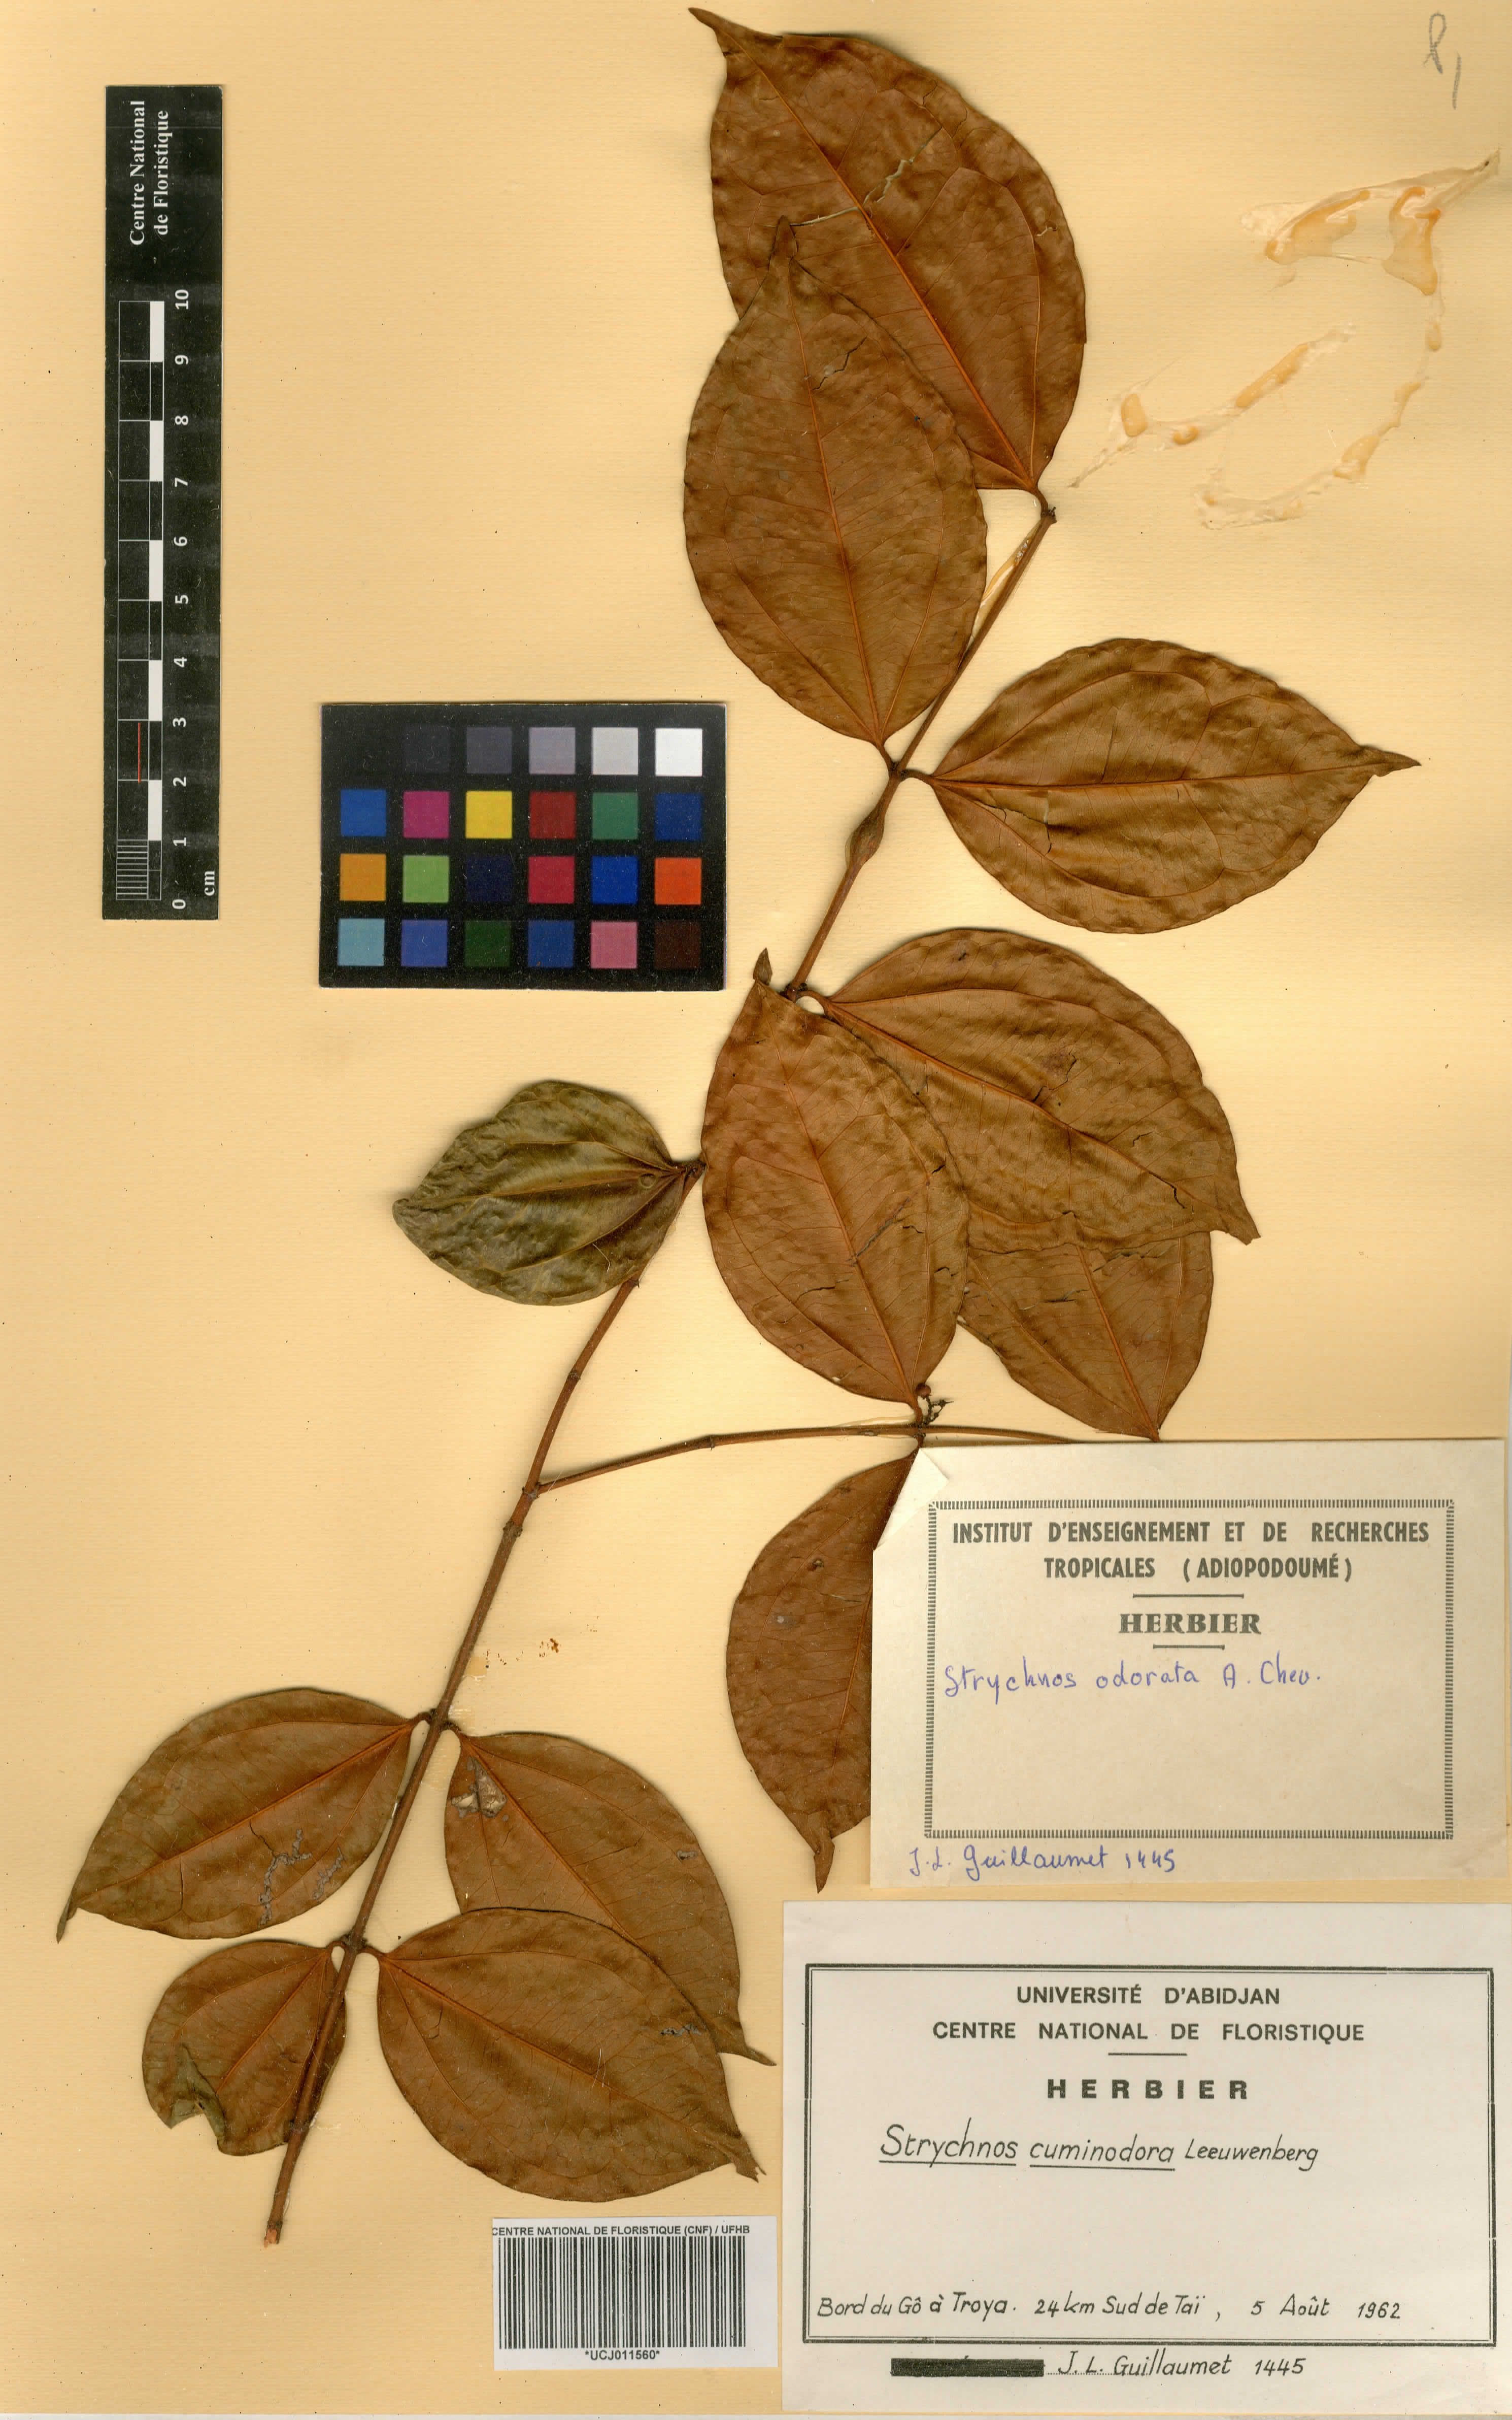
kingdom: Plantae
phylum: Tracheophyta
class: Magnoliopsida
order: Gentianales
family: Loganiaceae
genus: Strychnos
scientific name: Strychnos cuminodora
